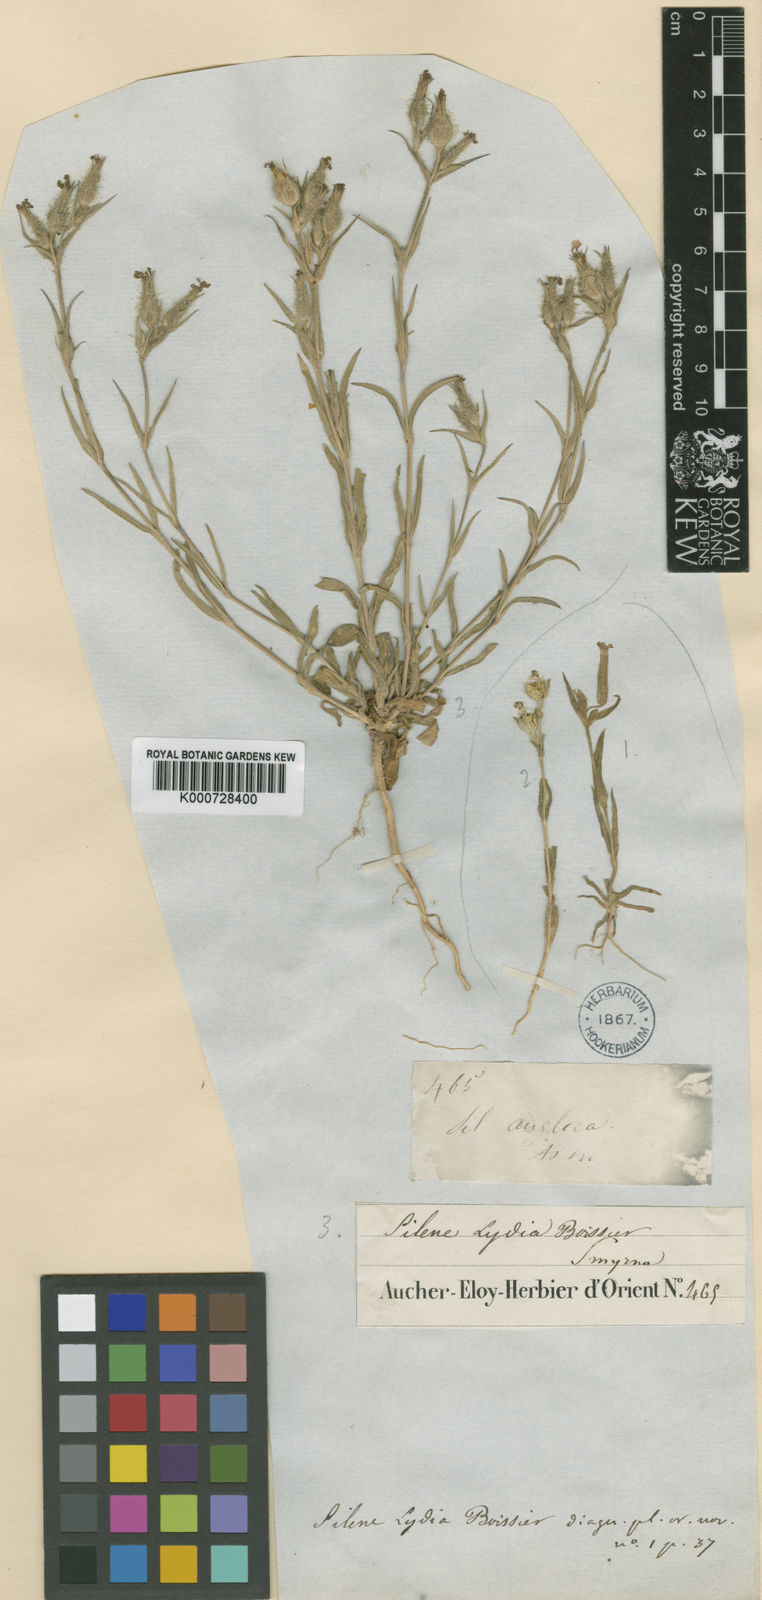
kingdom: Plantae
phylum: Tracheophyta
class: Magnoliopsida
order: Caryophyllales
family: Caryophyllaceae
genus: Silene
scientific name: Silene lydia
